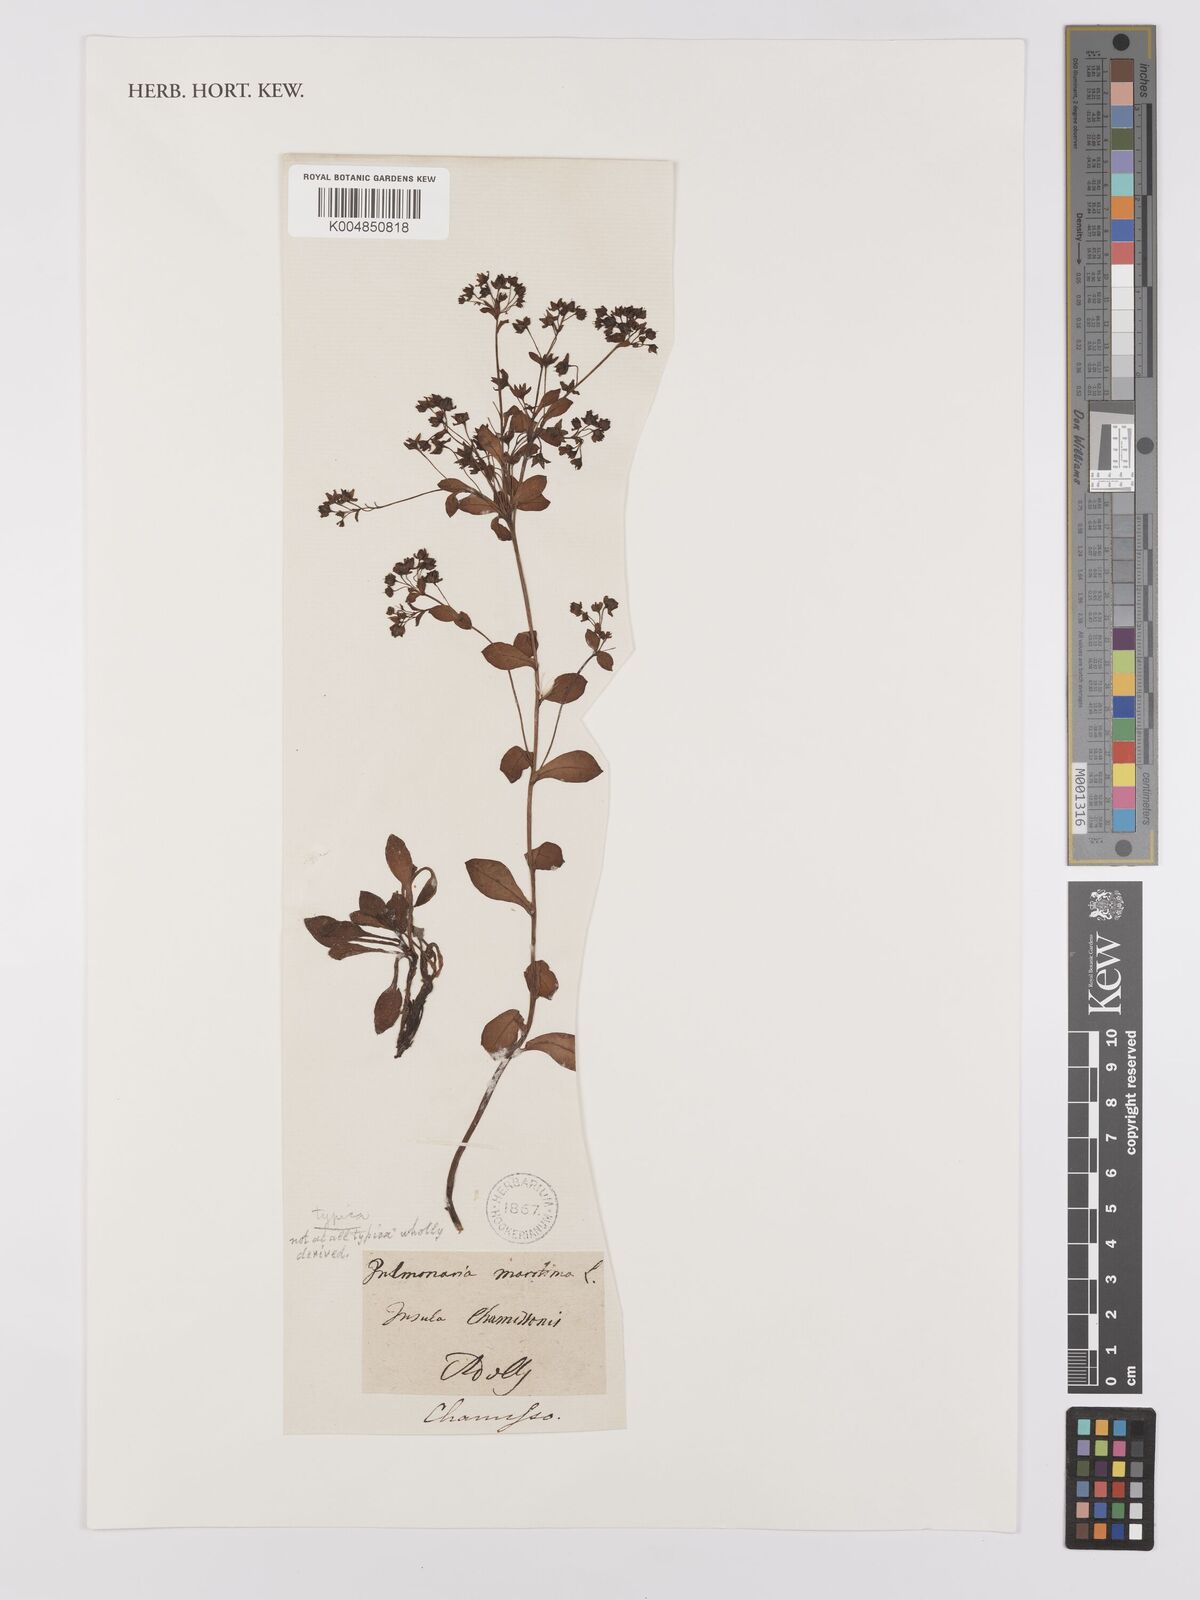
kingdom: Plantae
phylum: Tracheophyta
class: Magnoliopsida
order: Boraginales
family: Boraginaceae
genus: Mertensia
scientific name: Mertensia maritima
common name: Oysterplant
